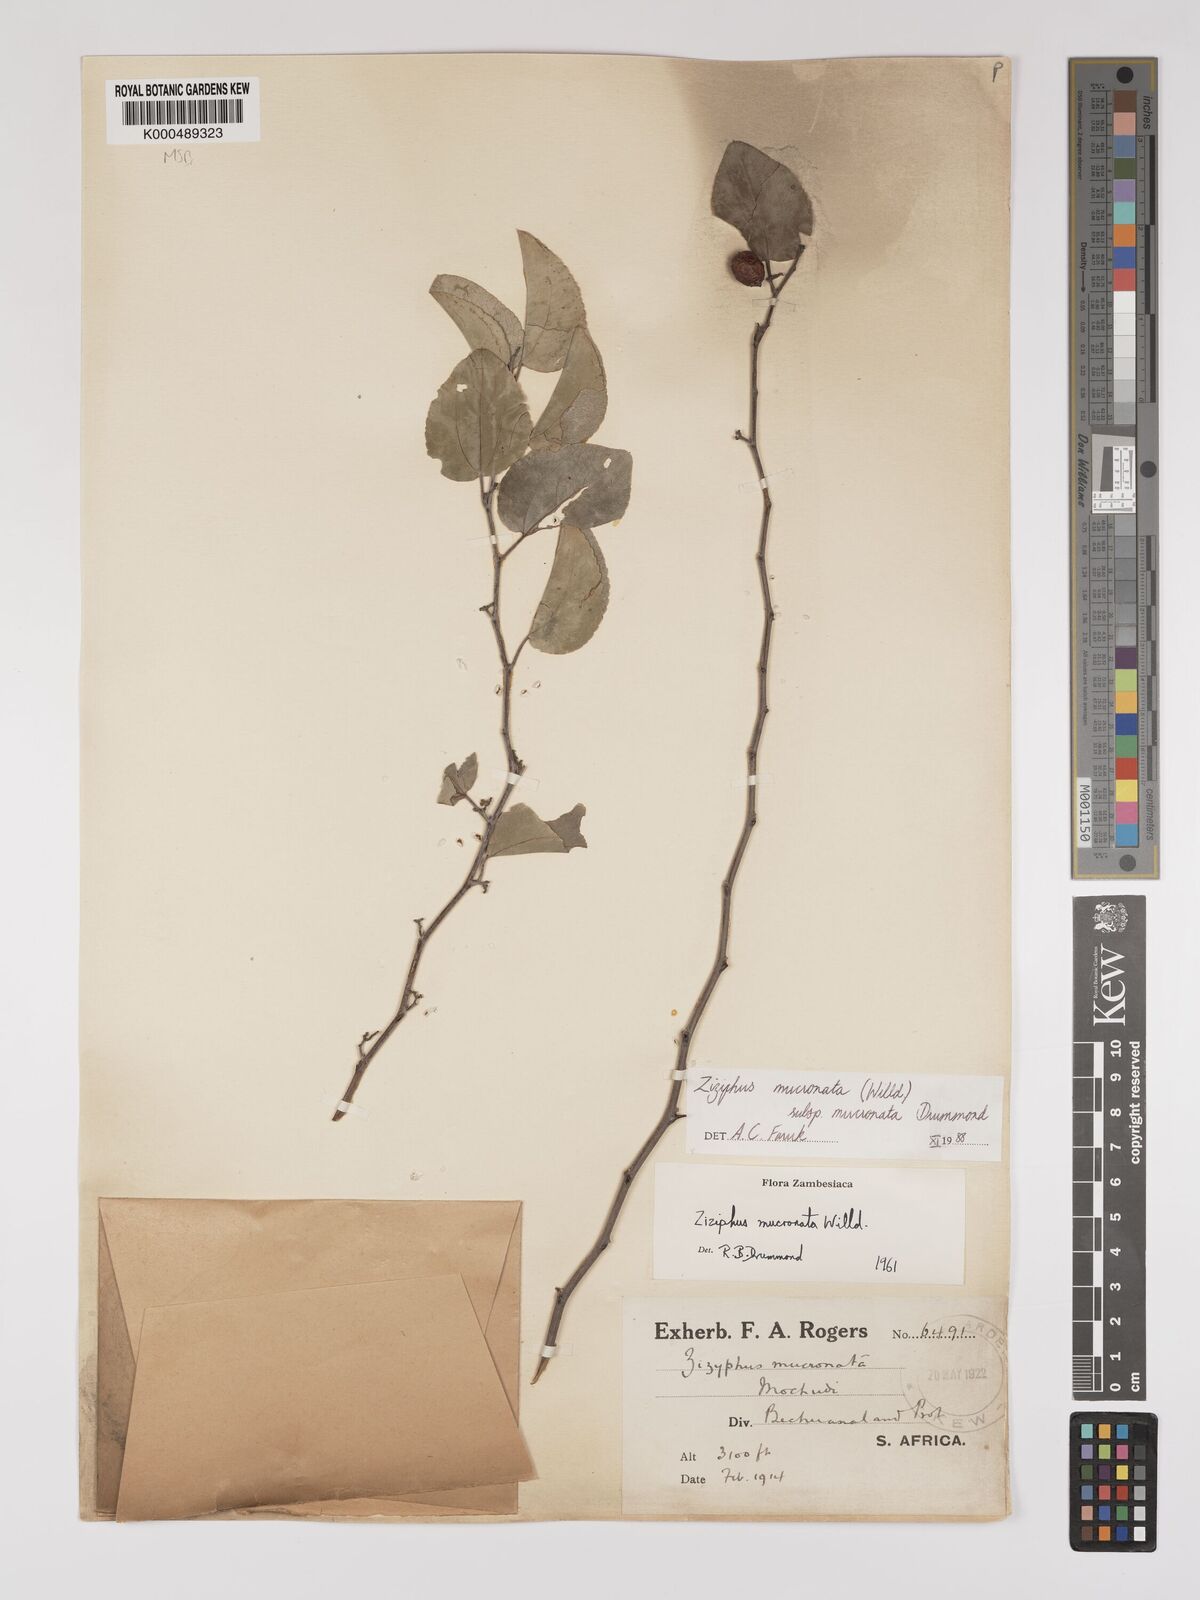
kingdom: Plantae
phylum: Tracheophyta
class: Magnoliopsida
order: Rosales
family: Rhamnaceae
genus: Ziziphus
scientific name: Ziziphus mucronata
